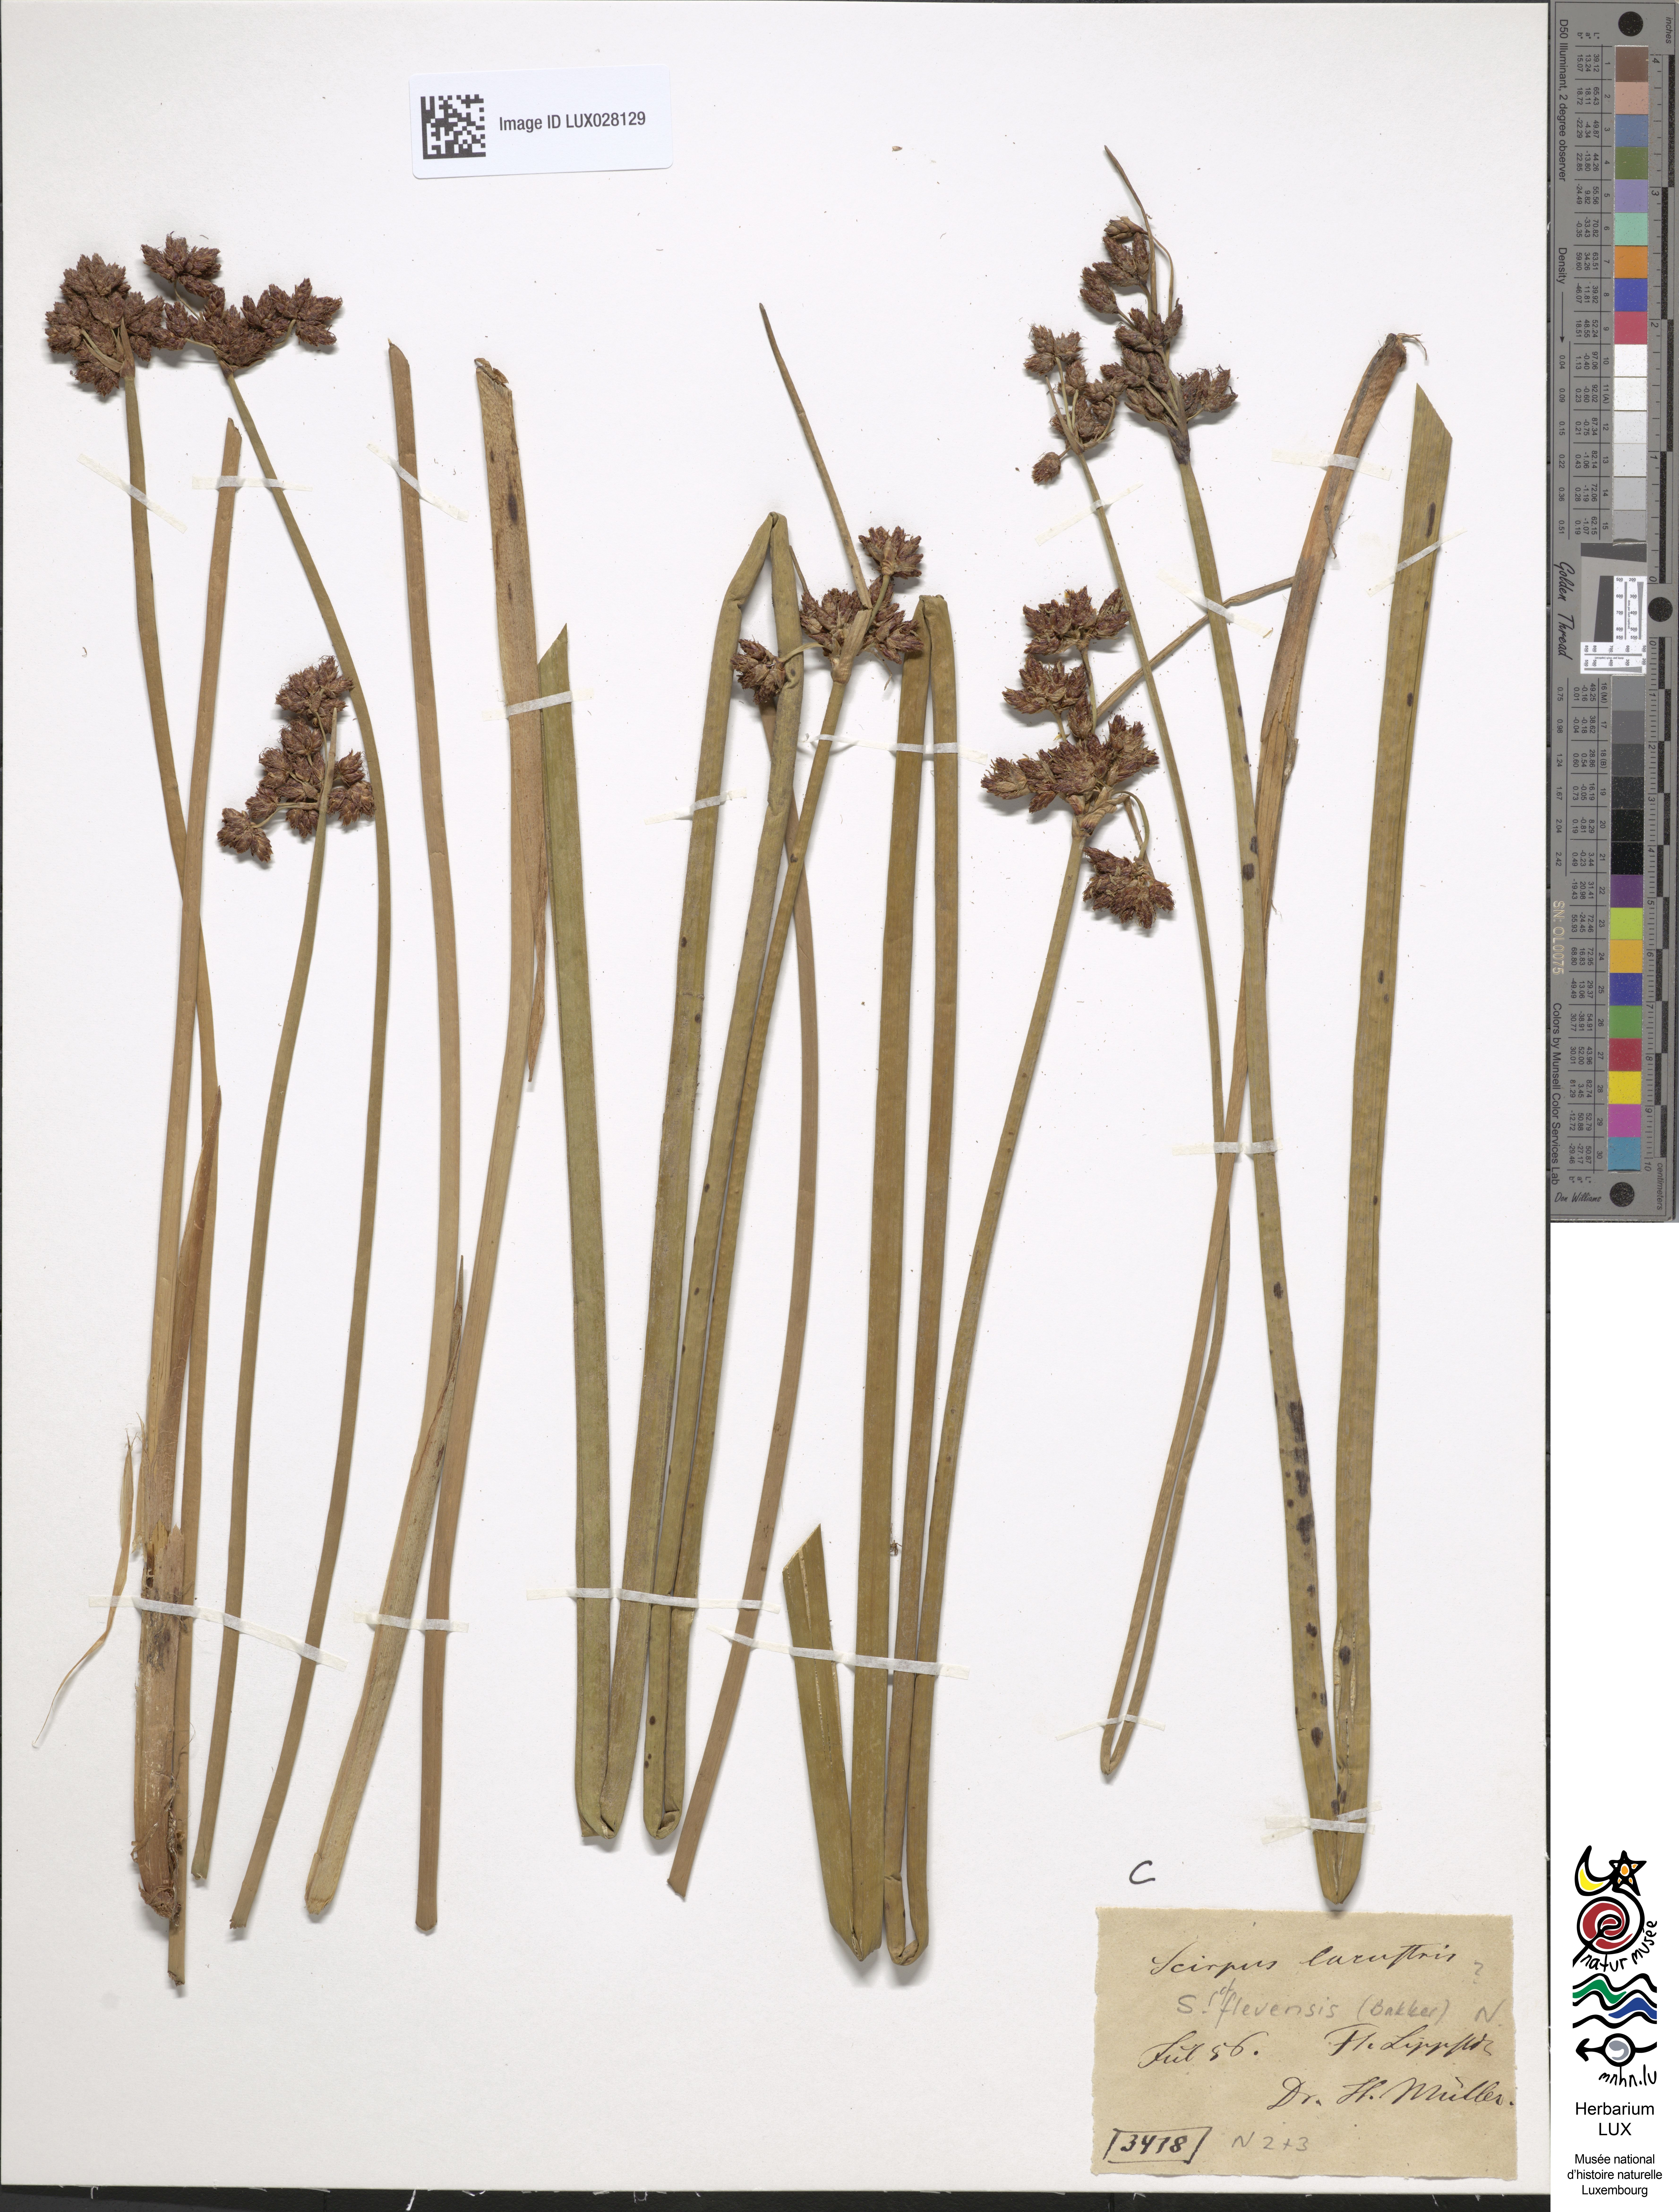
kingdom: Plantae
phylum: Tracheophyta
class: Liliopsida
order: Poales
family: Cyperaceae
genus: Schoenoplectus
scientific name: Schoenoplectus lacustris
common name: Common club-rush
